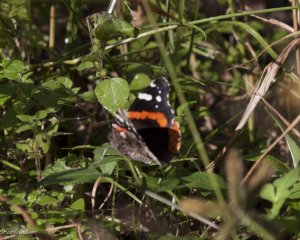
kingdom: Animalia
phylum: Arthropoda
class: Insecta
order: Lepidoptera
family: Nymphalidae
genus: Vanessa
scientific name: Vanessa atalanta
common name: Red Admiral
